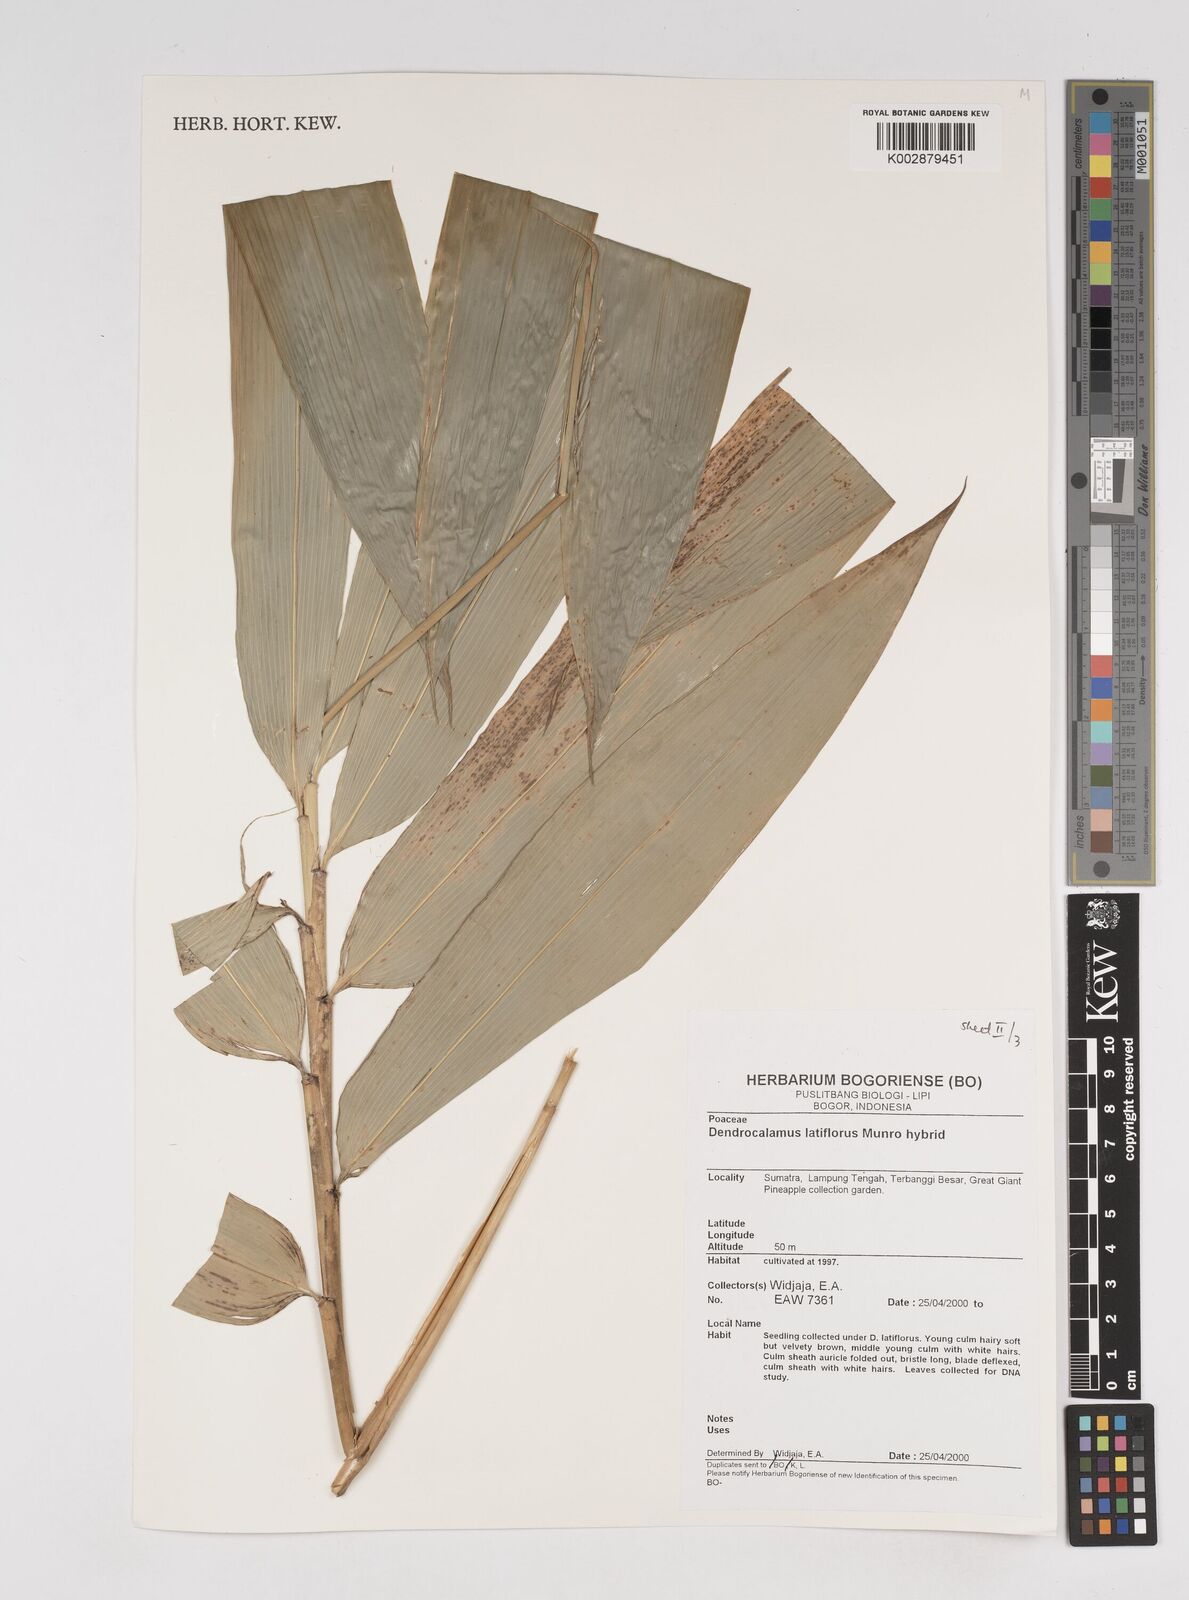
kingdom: Plantae
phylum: Tracheophyta
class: Liliopsida
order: Poales
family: Poaceae
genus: Dendrocalamus
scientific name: Dendrocalamus latiflorus
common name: Giant bamboo
